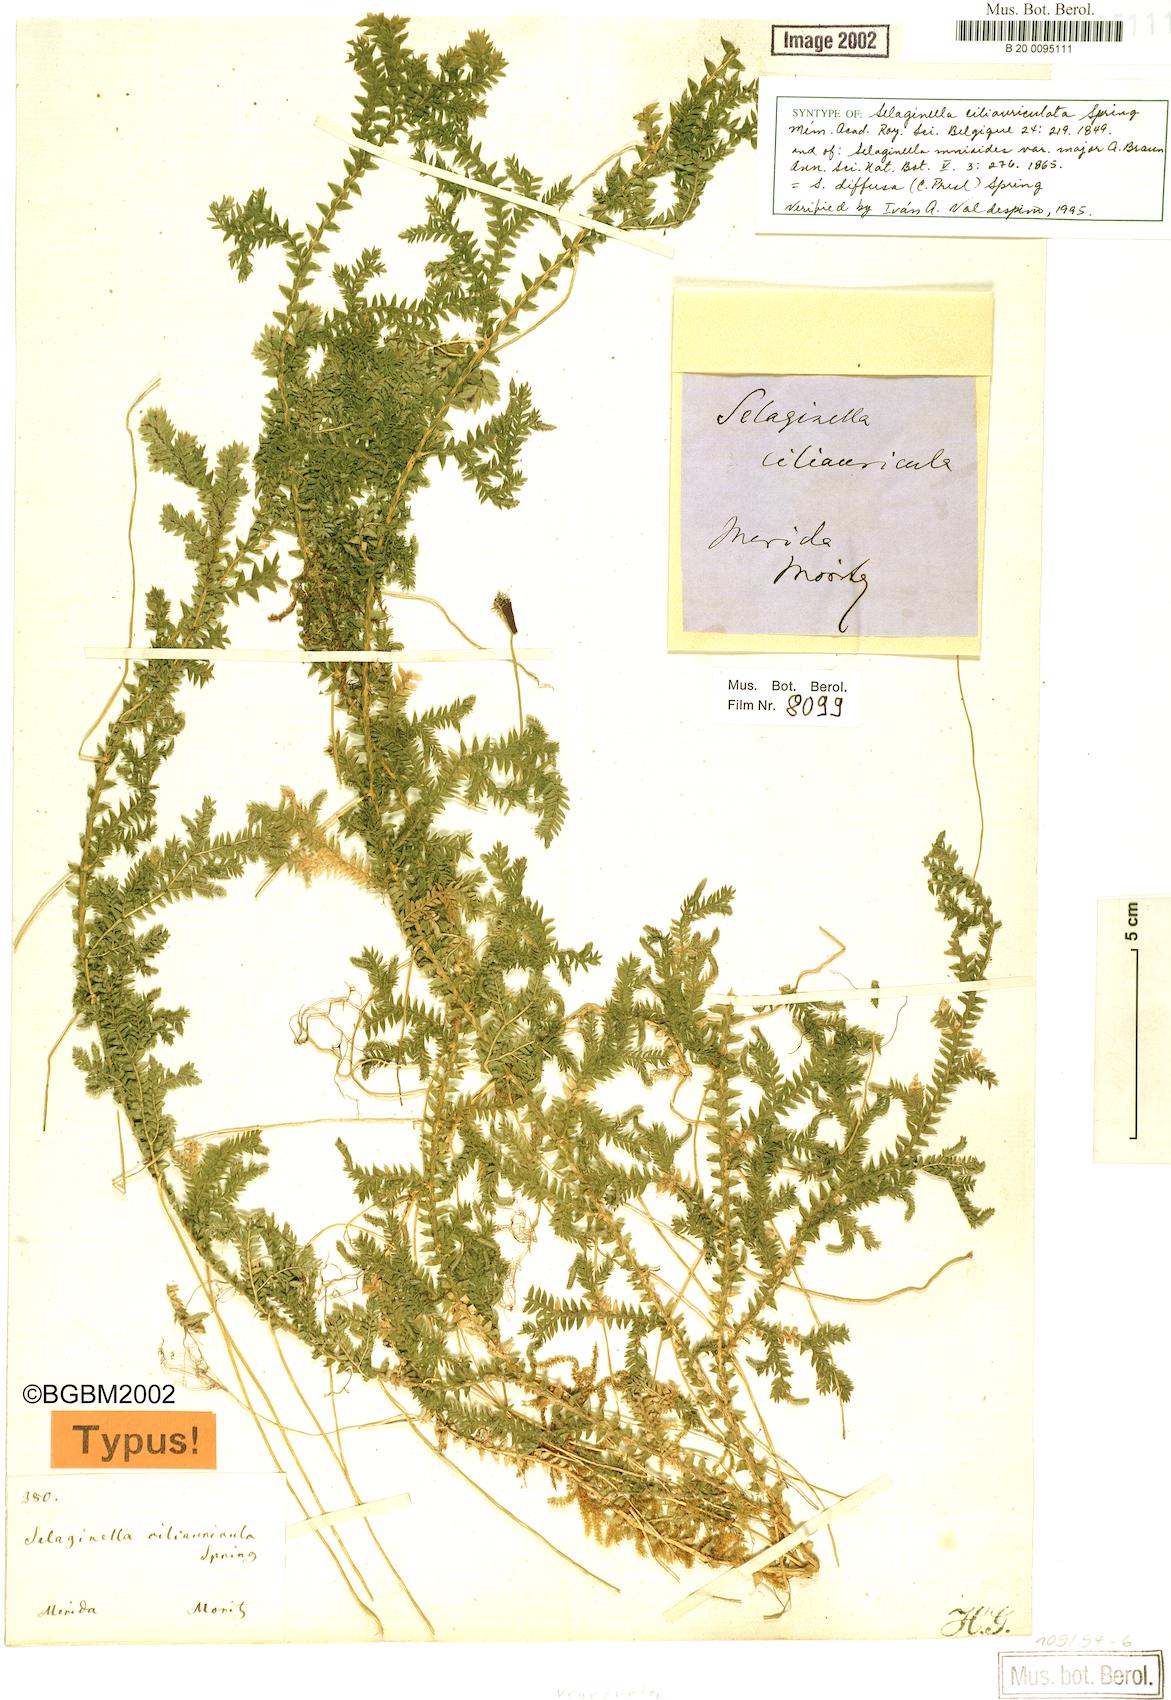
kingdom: Plantae
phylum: Tracheophyta
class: Lycopodiopsida
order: Selaginellales
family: Selaginellaceae
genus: Selaginella
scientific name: Selaginella diffusa
